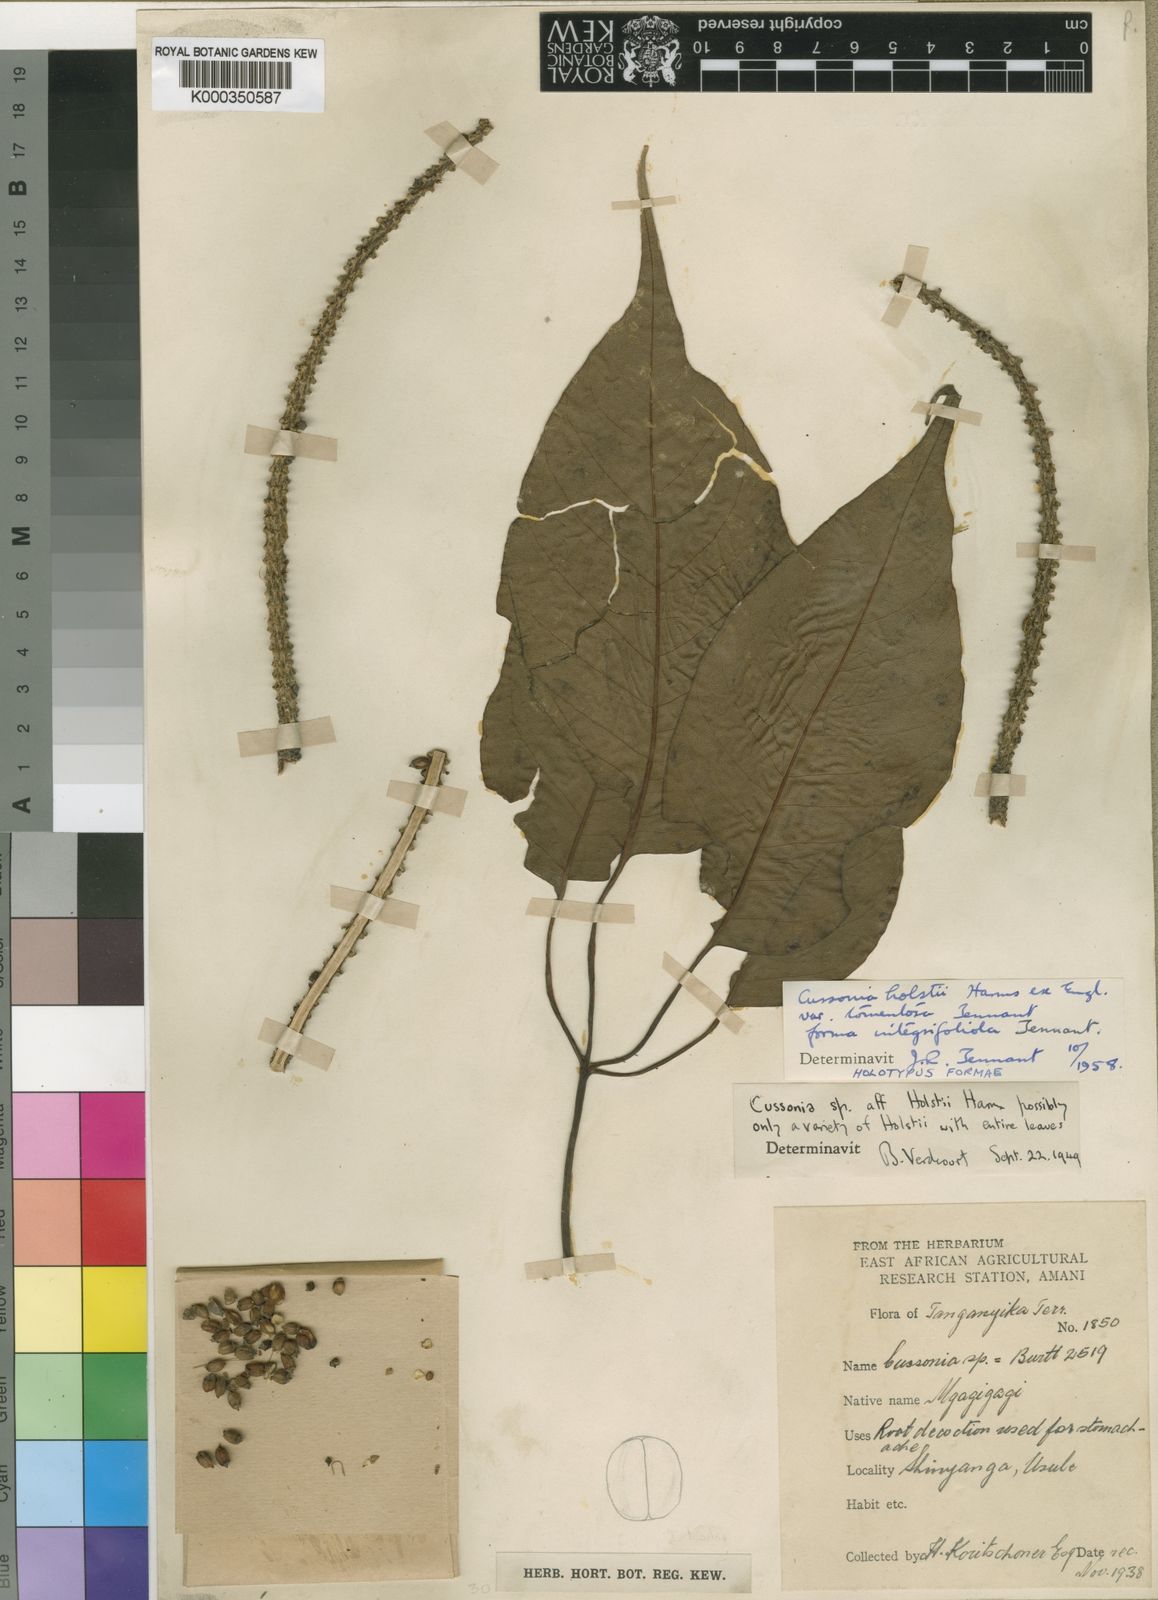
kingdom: Plantae
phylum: Tracheophyta
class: Magnoliopsida
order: Apiales
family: Araliaceae
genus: Cussonia
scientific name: Cussonia holstii
